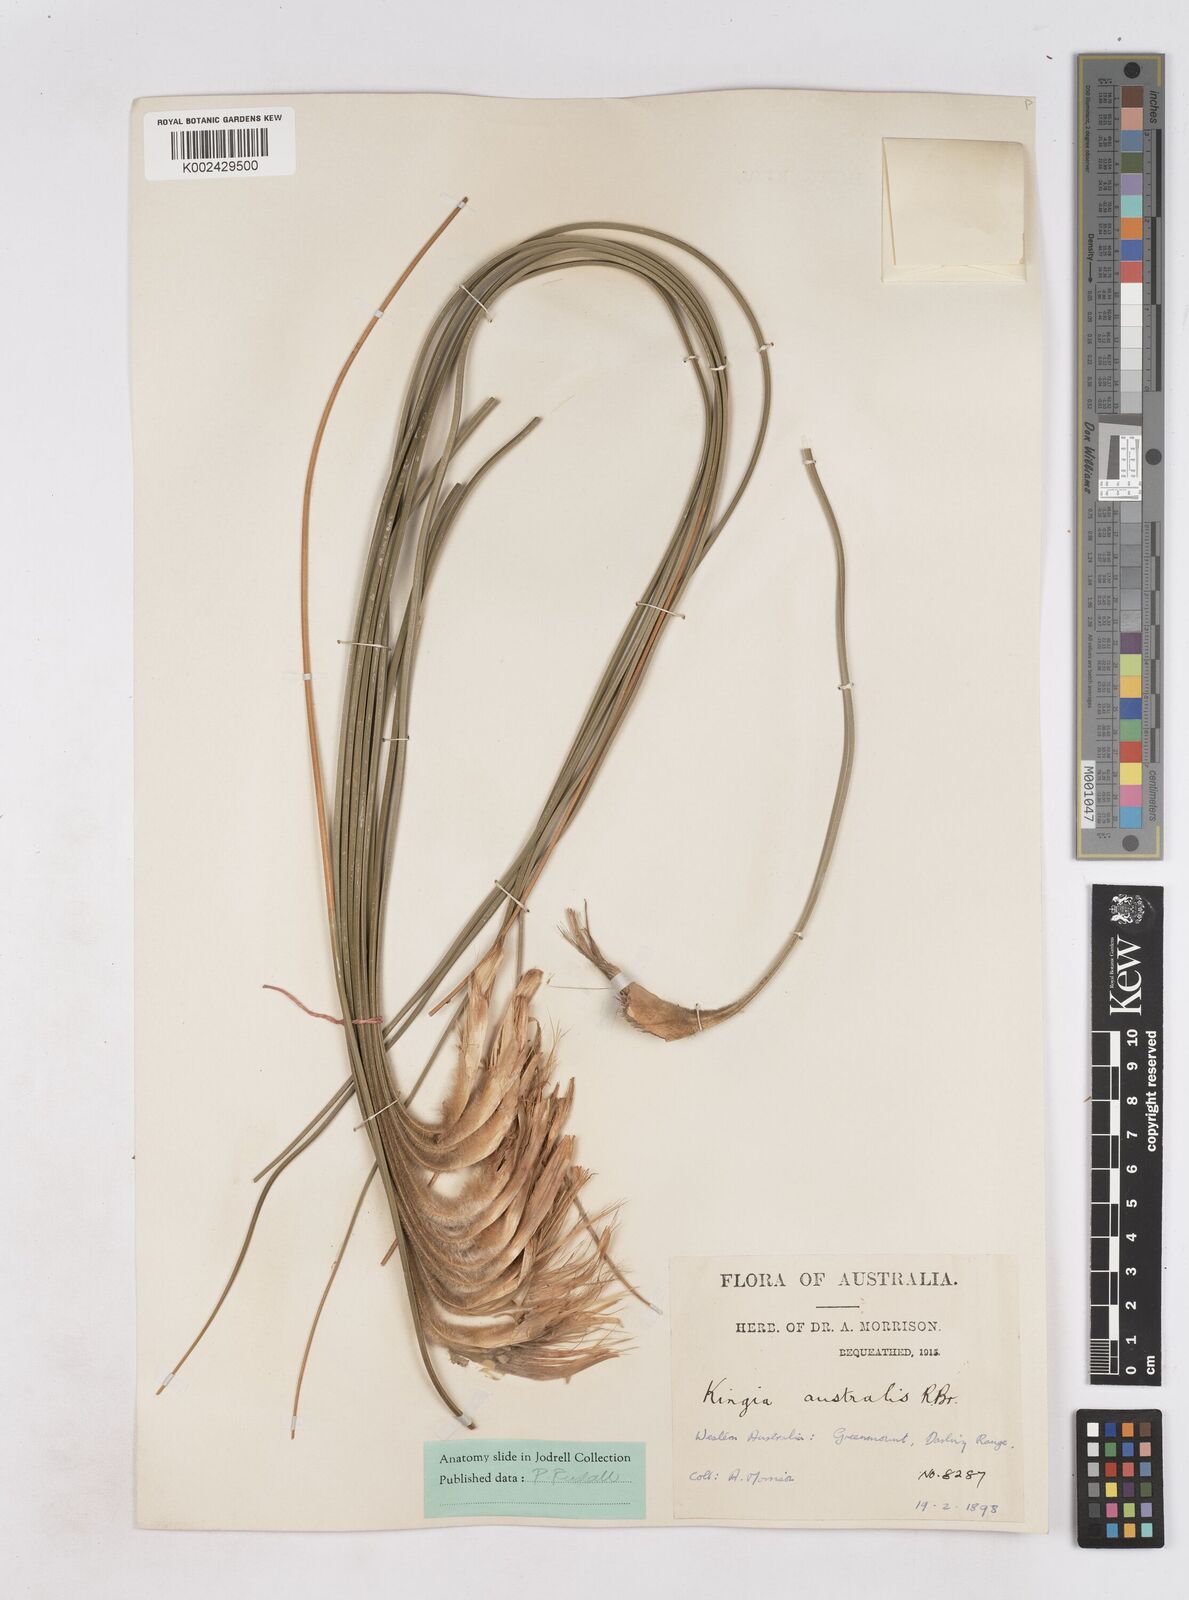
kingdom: Plantae
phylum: Tracheophyta
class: Liliopsida
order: Arecales
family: Dasypogonaceae
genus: Kingia
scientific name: Kingia australis
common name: Black gin
